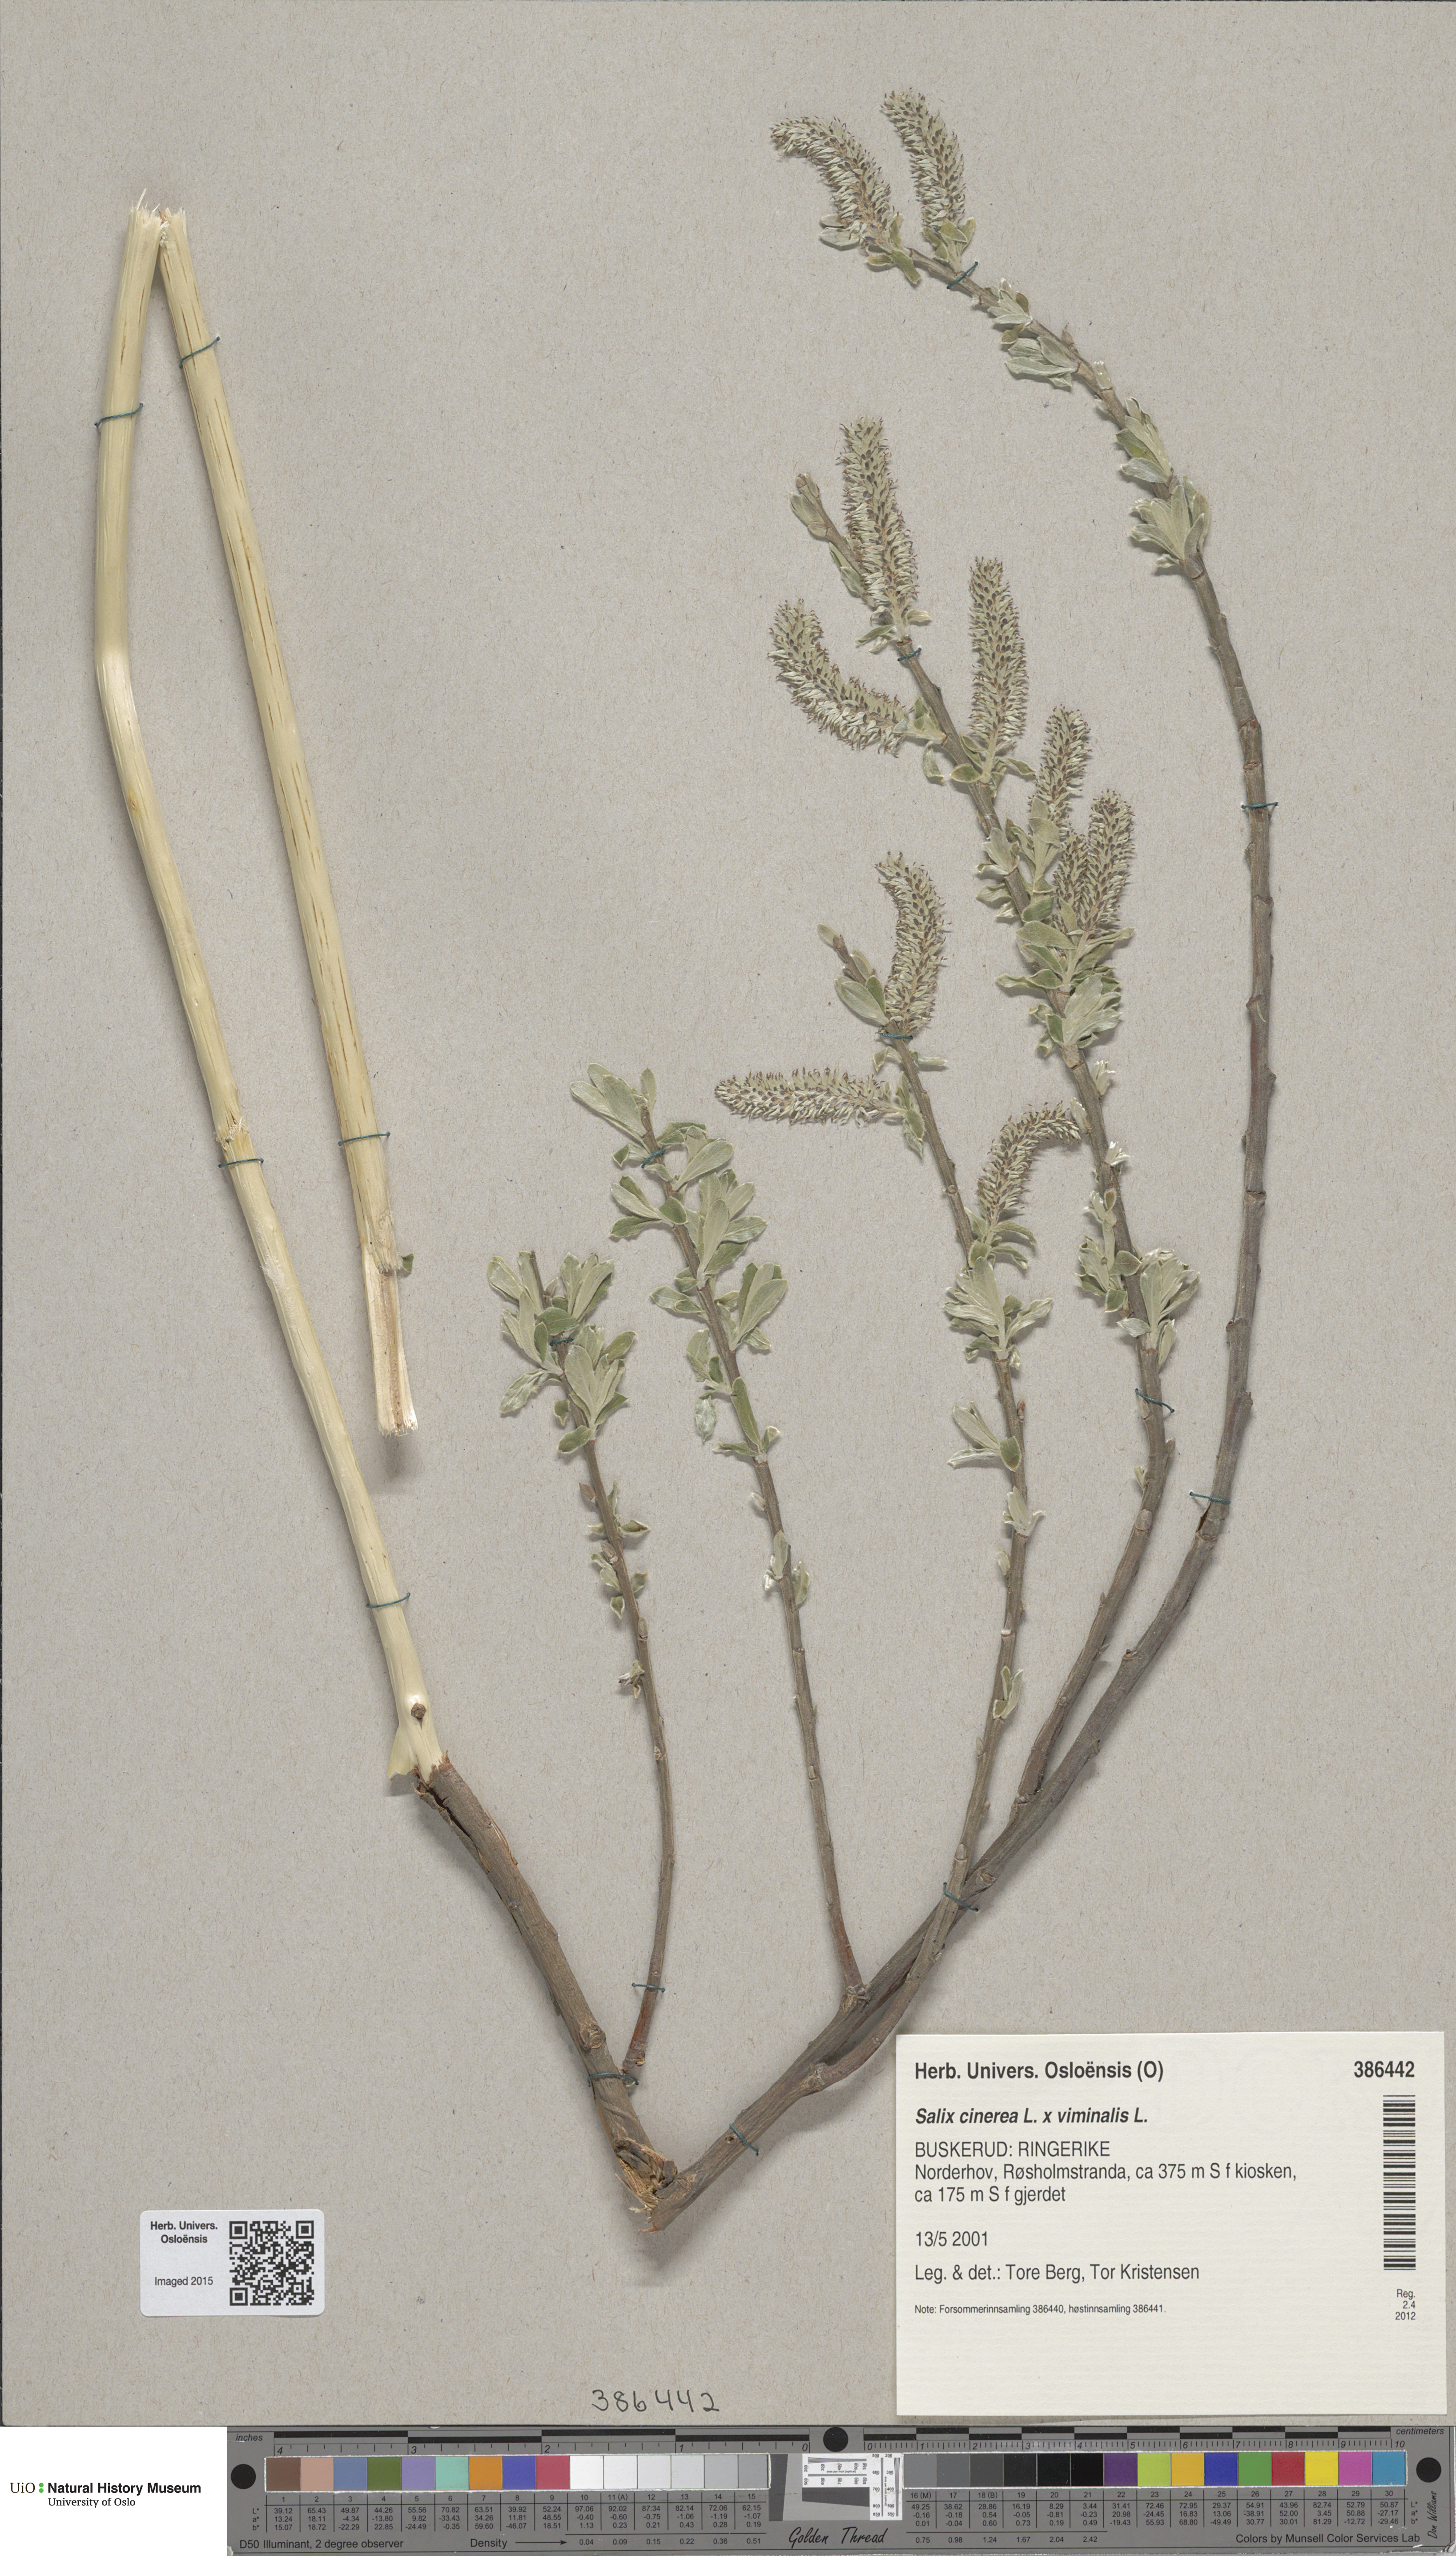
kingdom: Plantae
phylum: Tracheophyta
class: Magnoliopsida
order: Malpighiales
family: Salicaceae
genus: Salix
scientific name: Salix
